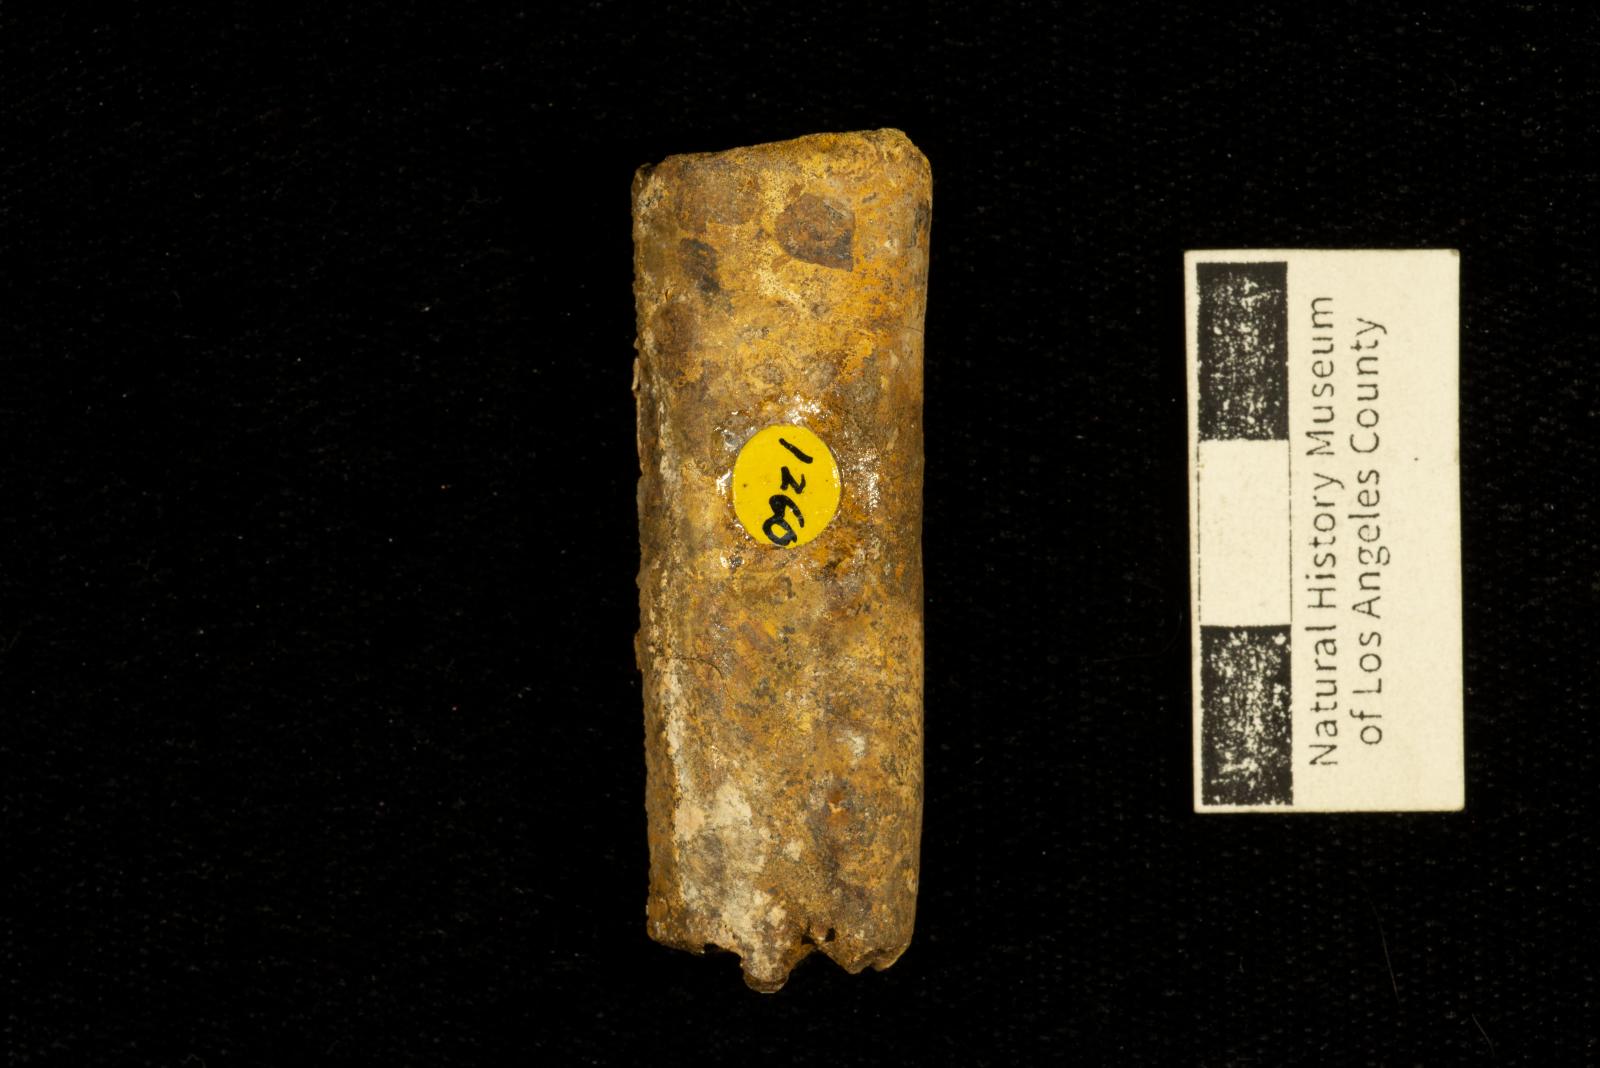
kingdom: Animalia
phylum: Mollusca
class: Cephalopoda
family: Baculitidae
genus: Baculites
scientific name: Baculites capensis
